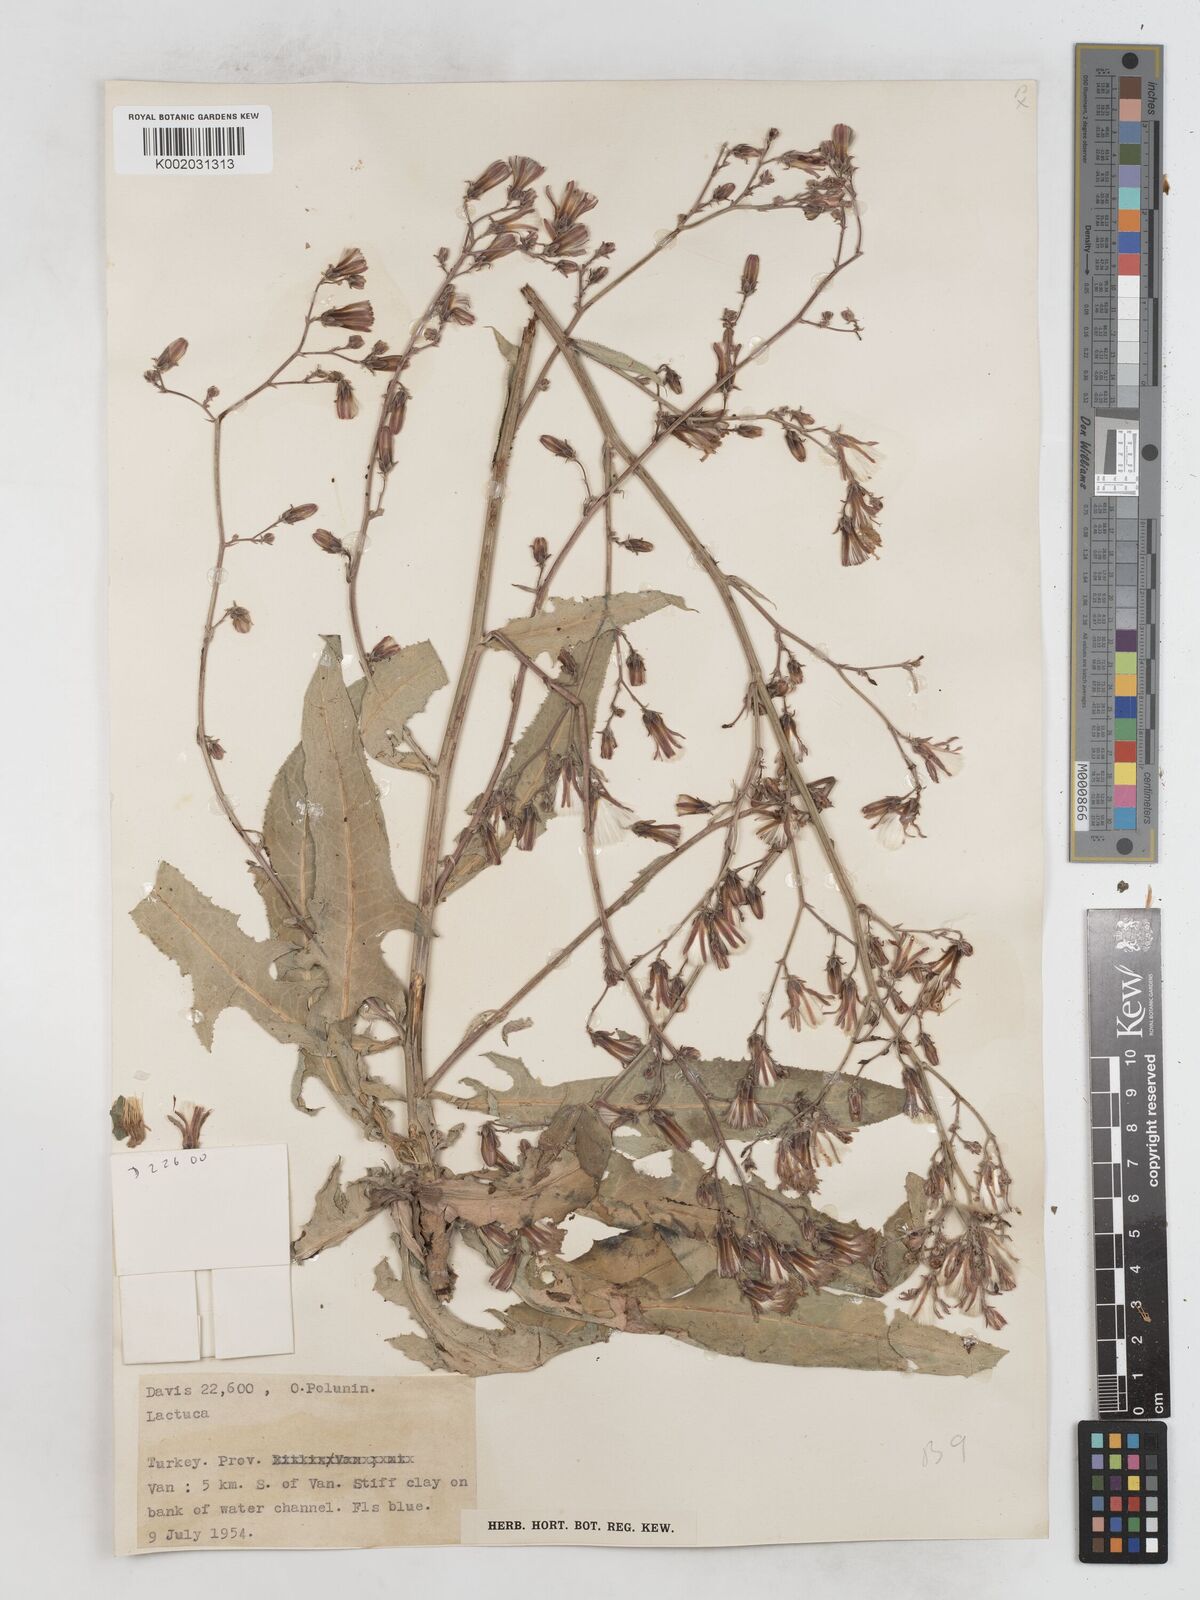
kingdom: Plantae
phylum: Tracheophyta
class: Magnoliopsida
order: Asterales
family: Asteraceae
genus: Lactuca
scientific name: Lactuca tatarica
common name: Blue lettuce
